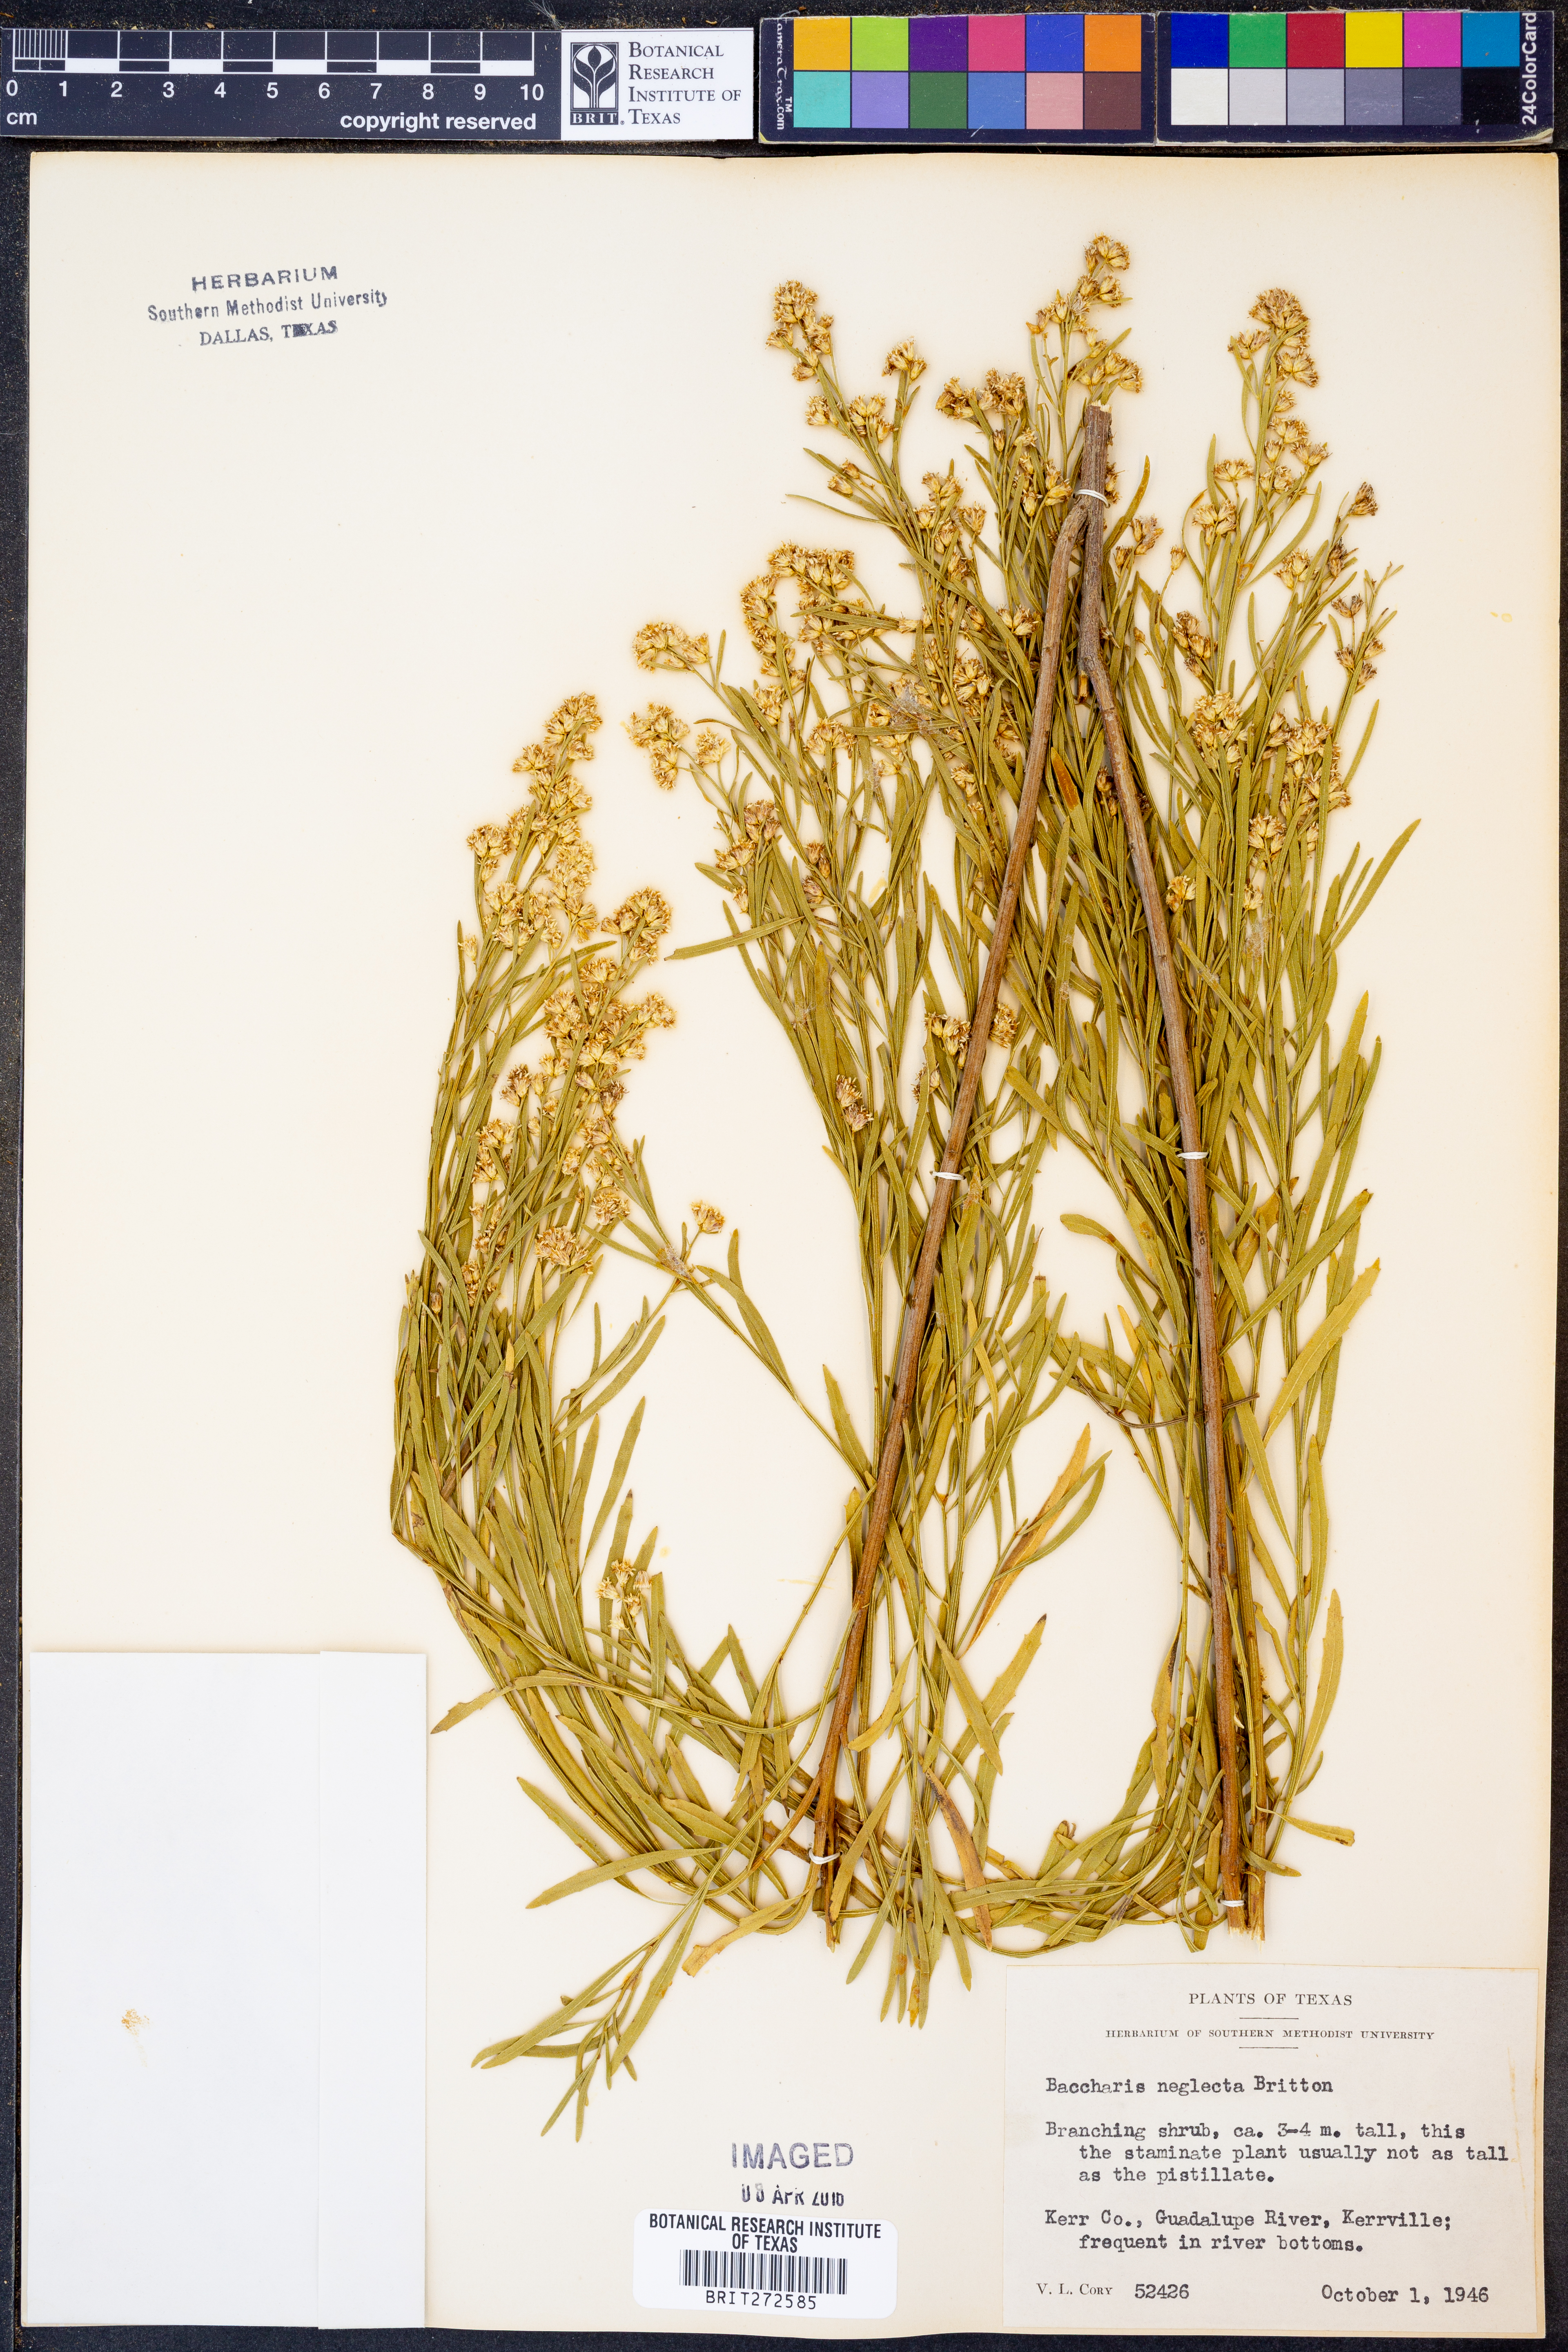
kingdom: Plantae
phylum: Tracheophyta
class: Magnoliopsida
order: Asterales
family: Asteraceae
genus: Baccharis
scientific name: Baccharis neglecta
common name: Roosevelt-weed
